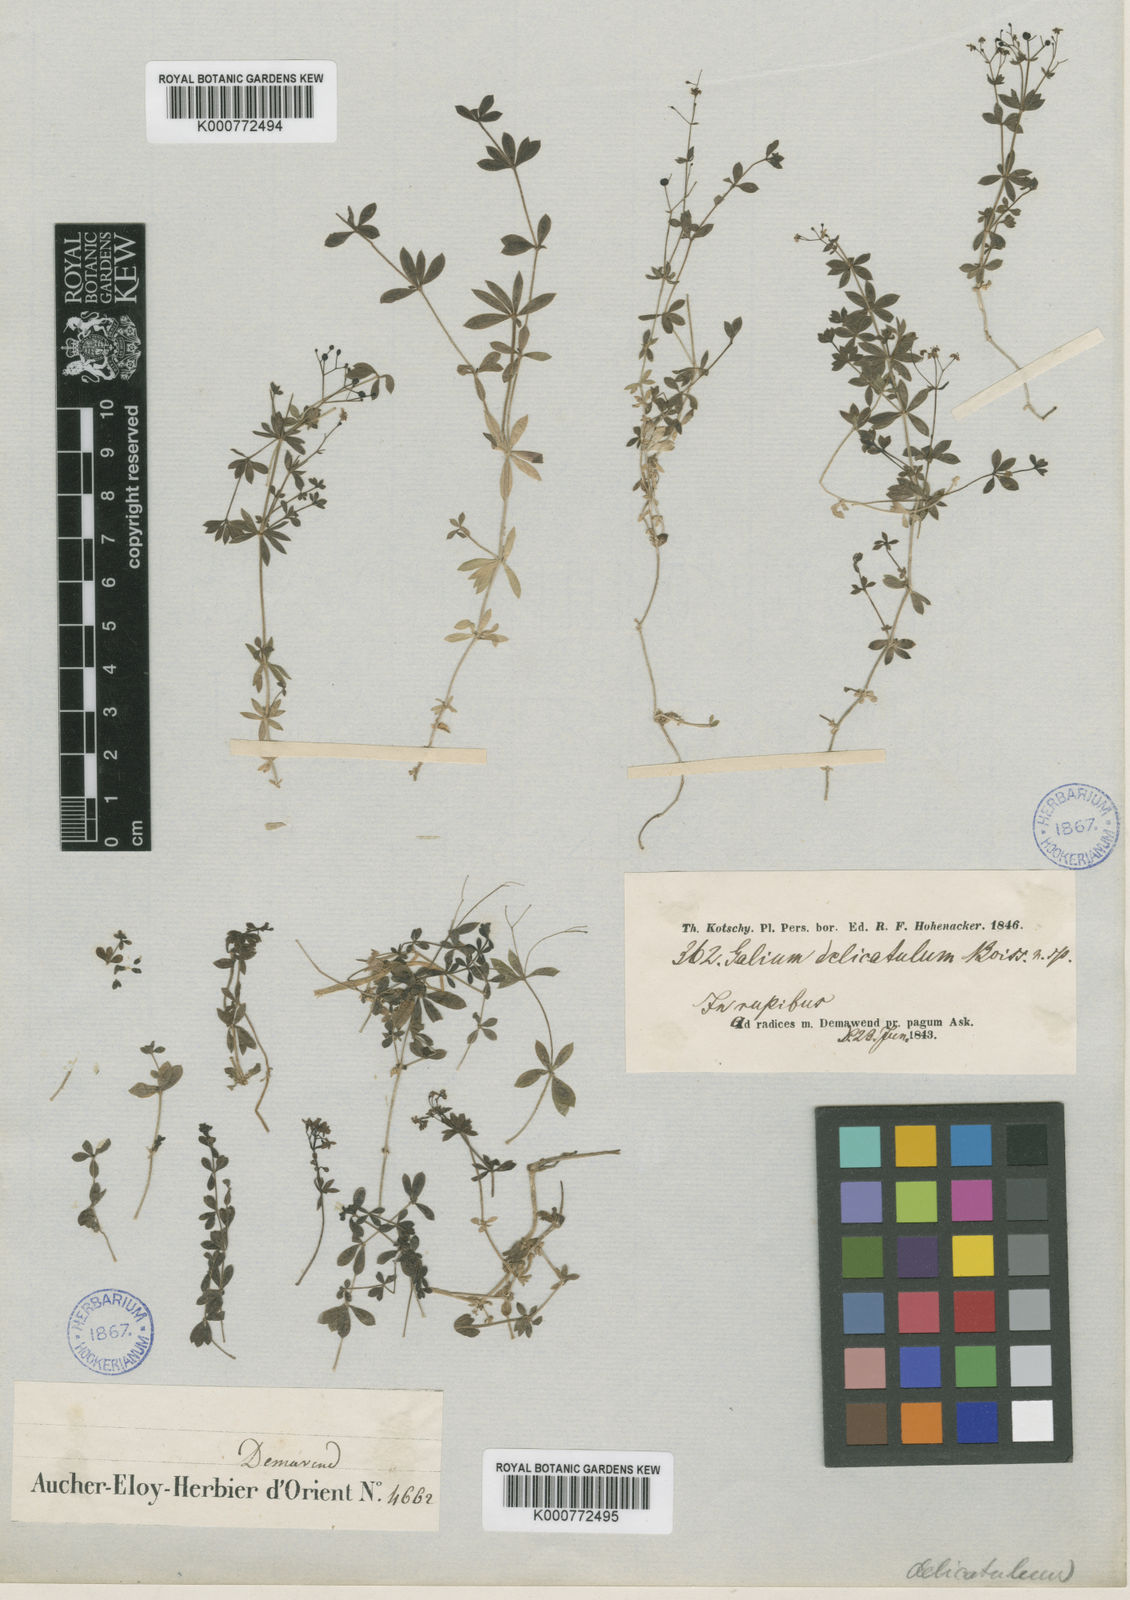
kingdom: Plantae
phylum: Tracheophyta
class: Magnoliopsida
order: Gentianales
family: Rubiaceae
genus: Galium
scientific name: Galium delicatulum
